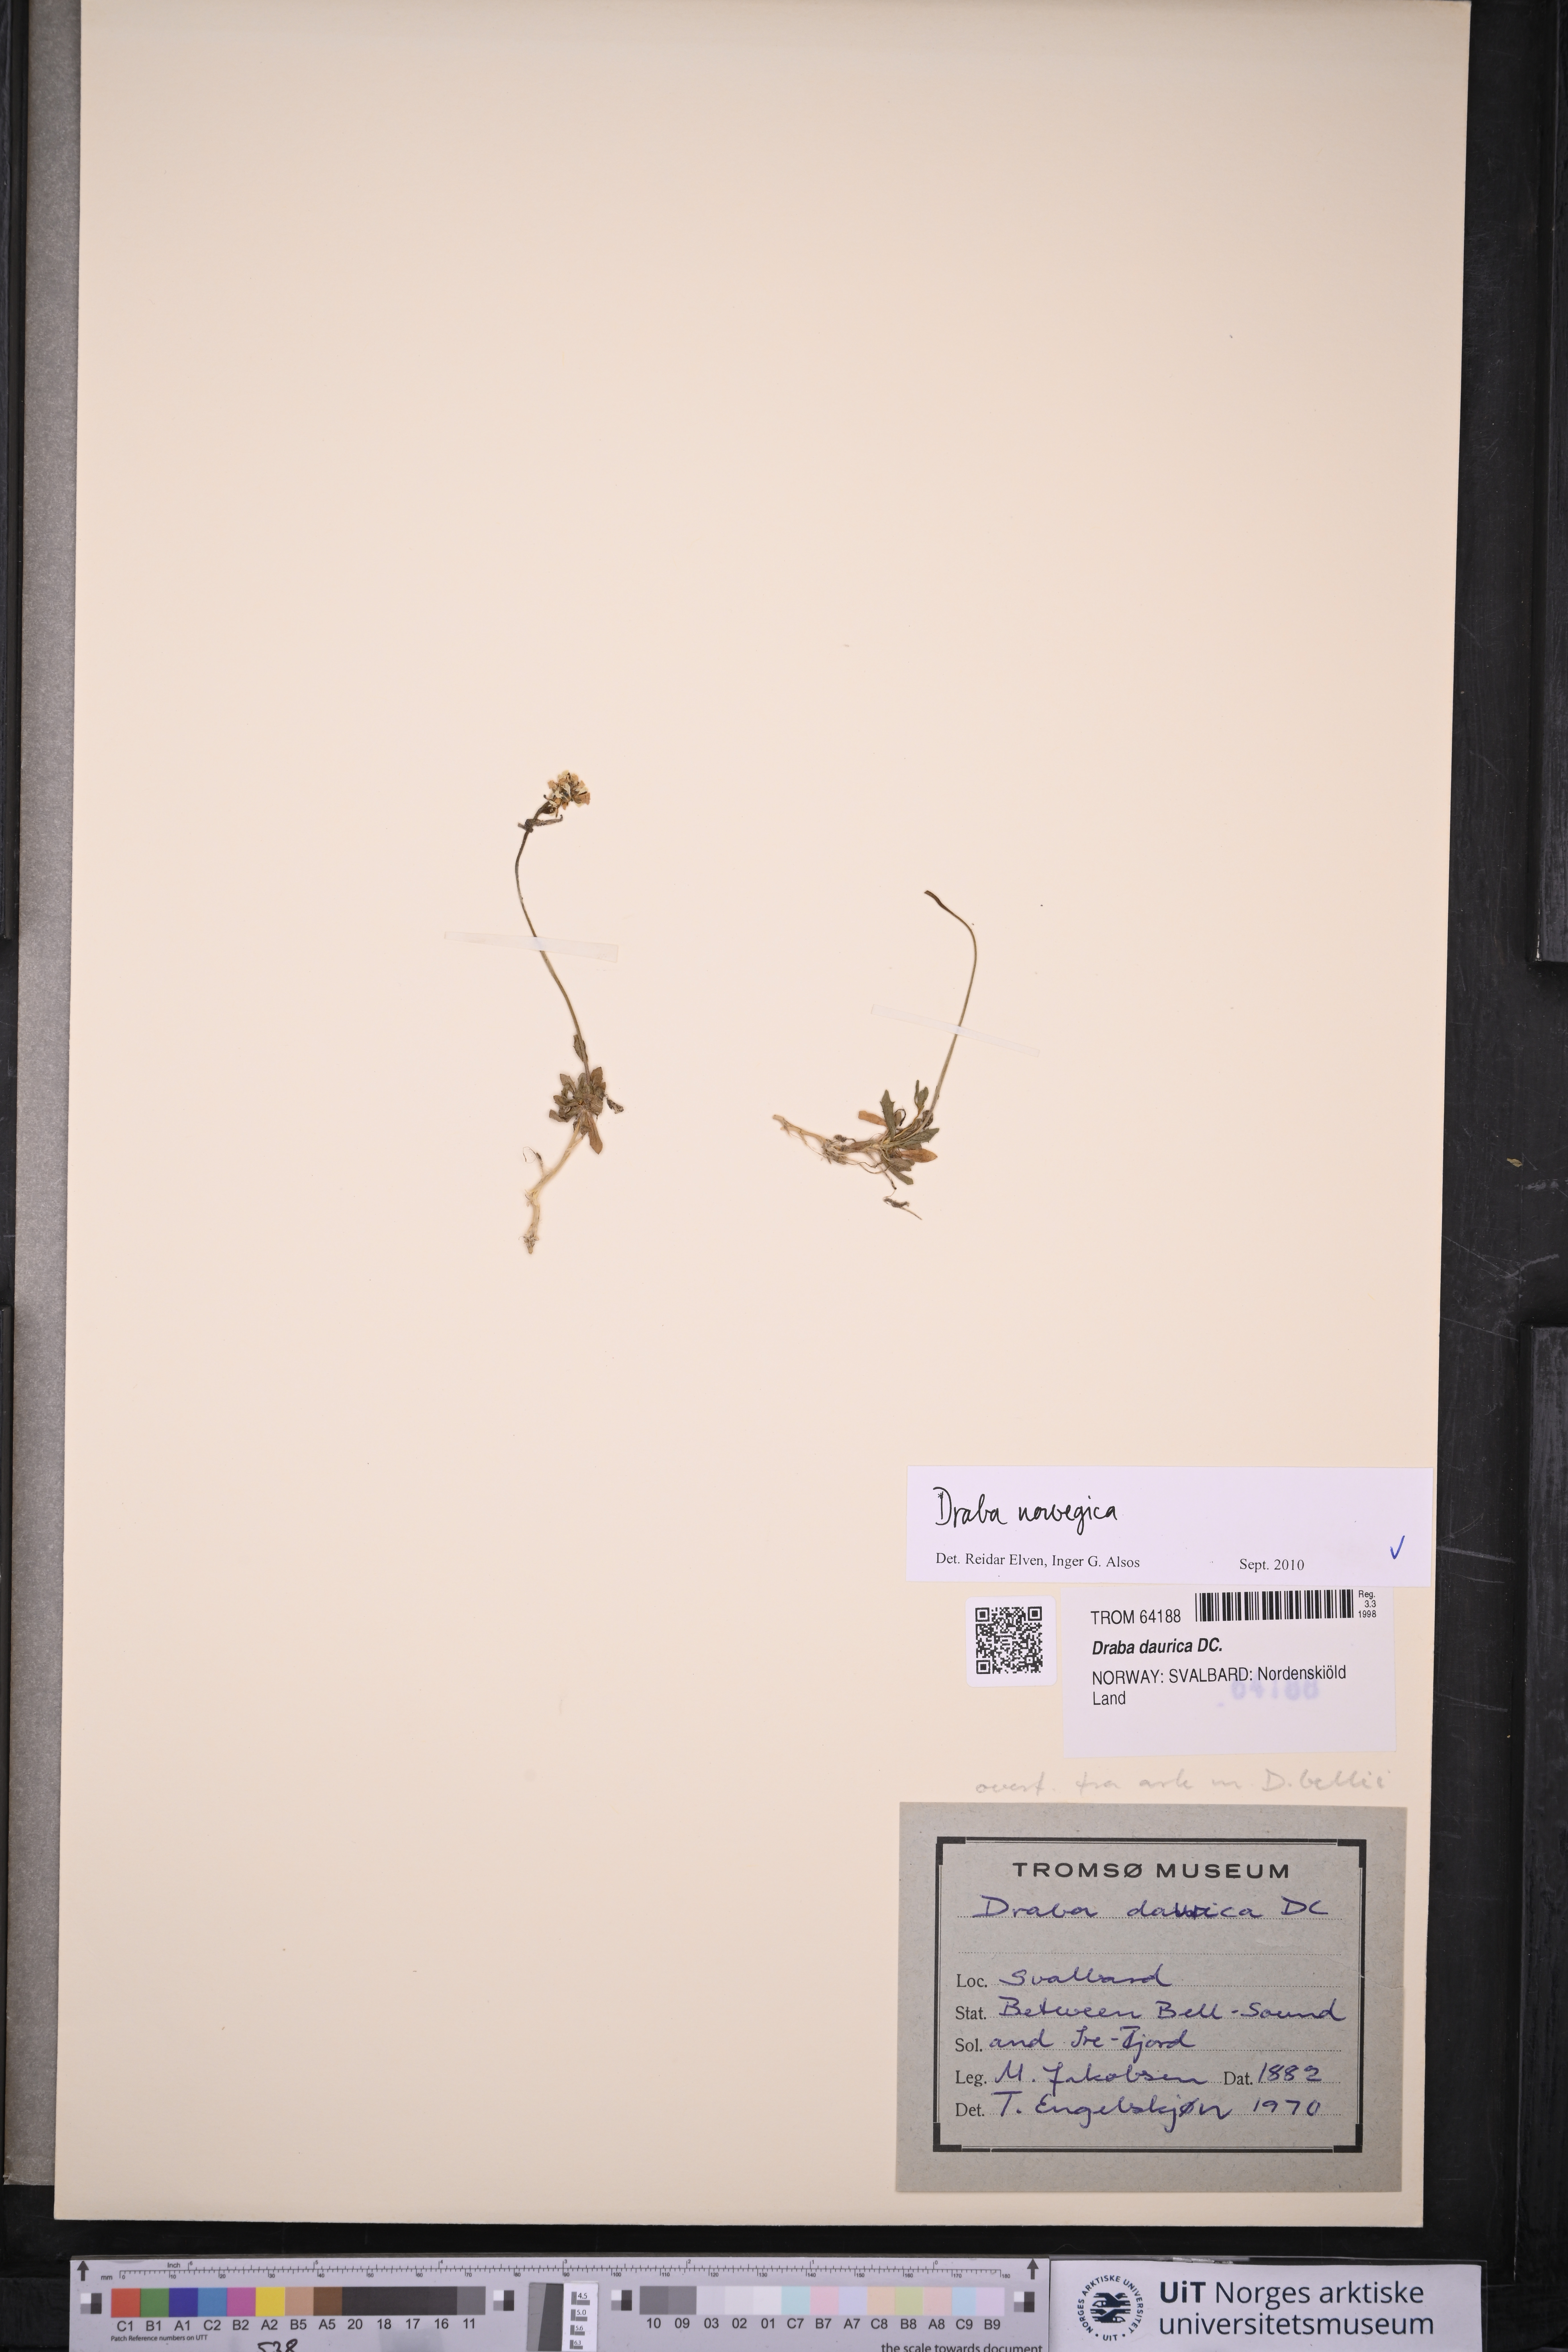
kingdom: Plantae
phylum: Tracheophyta
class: Magnoliopsida
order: Brassicales
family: Brassicaceae
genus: Draba
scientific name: Draba norvegica
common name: Rock whitlowgrass
